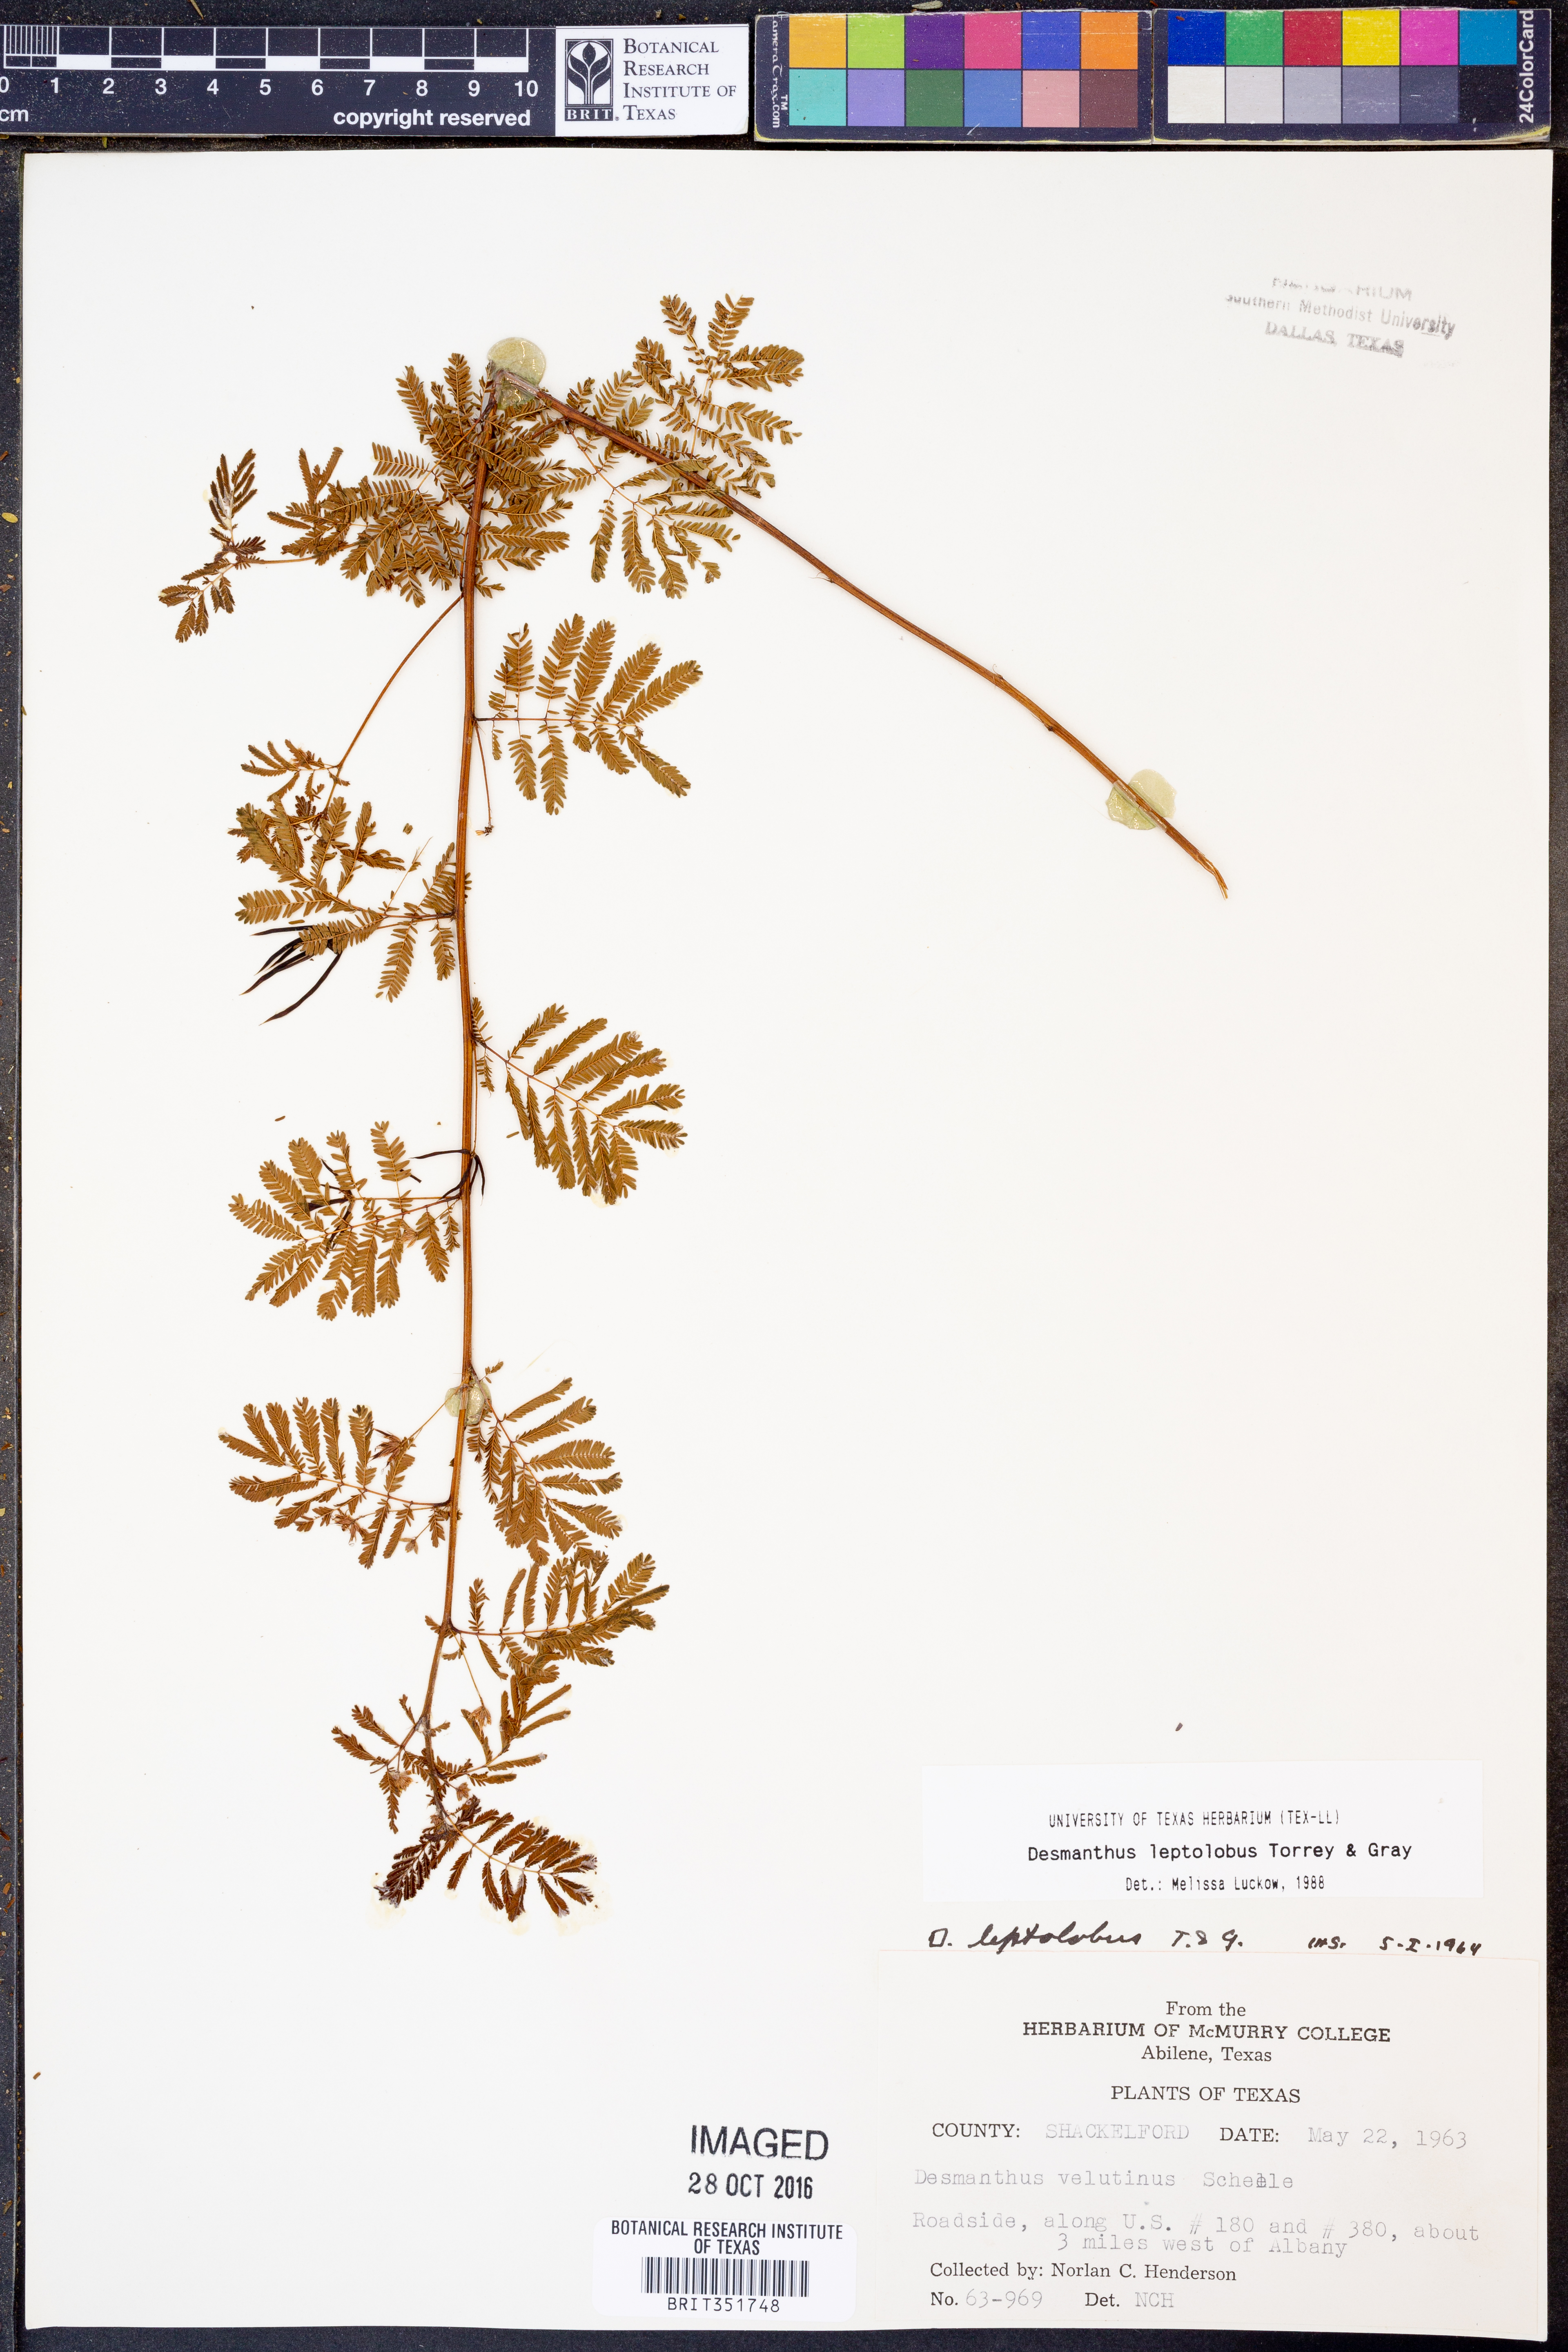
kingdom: Plantae
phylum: Tracheophyta
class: Magnoliopsida
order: Fabales
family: Fabaceae
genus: Desmanthus
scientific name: Desmanthus leptolobus
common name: Prairie-mimosa
